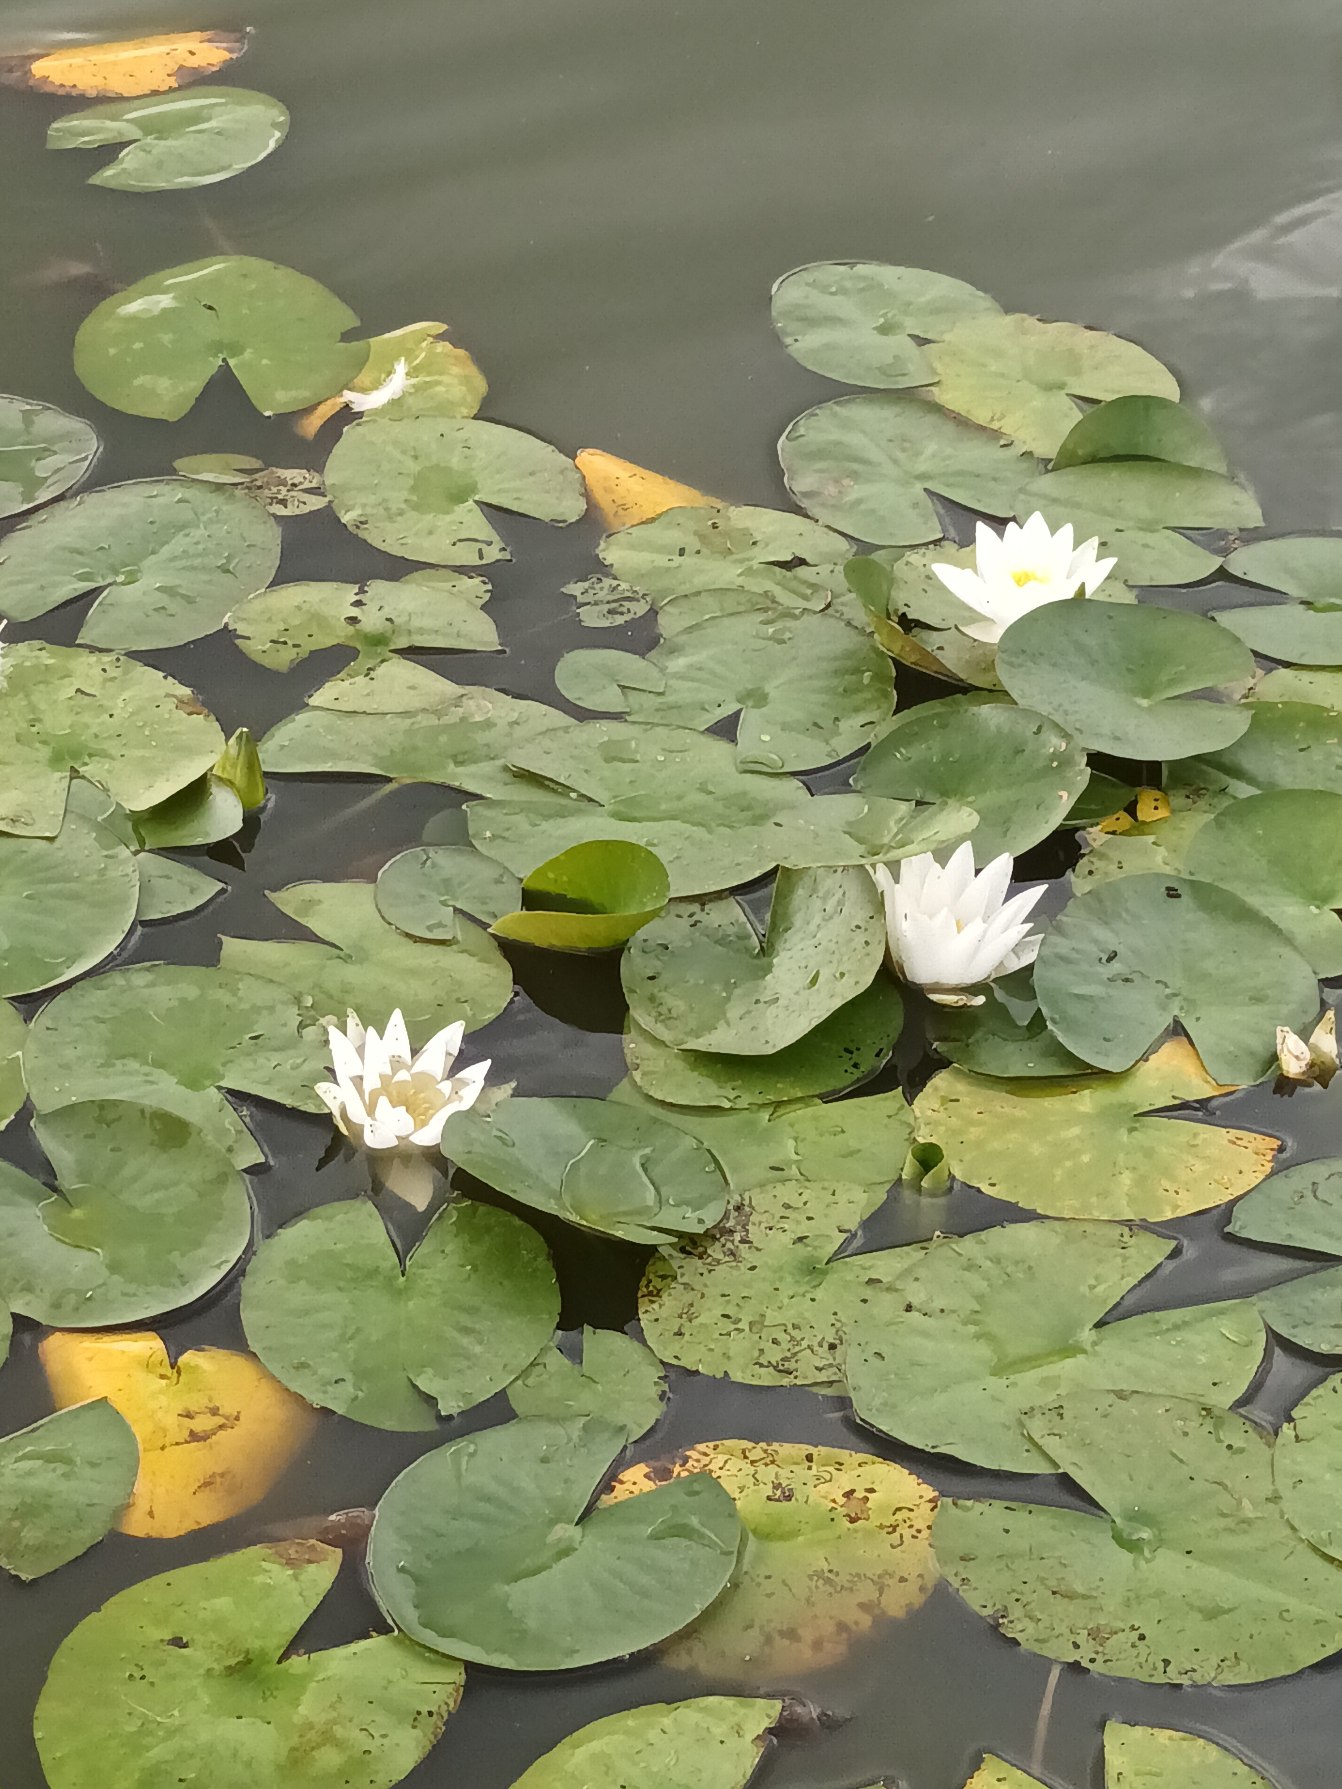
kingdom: Plantae
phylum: Tracheophyta
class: Magnoliopsida
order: Nymphaeales
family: Nymphaeaceae
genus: Nymphaea
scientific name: Nymphaea alba
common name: Hvid åkande
